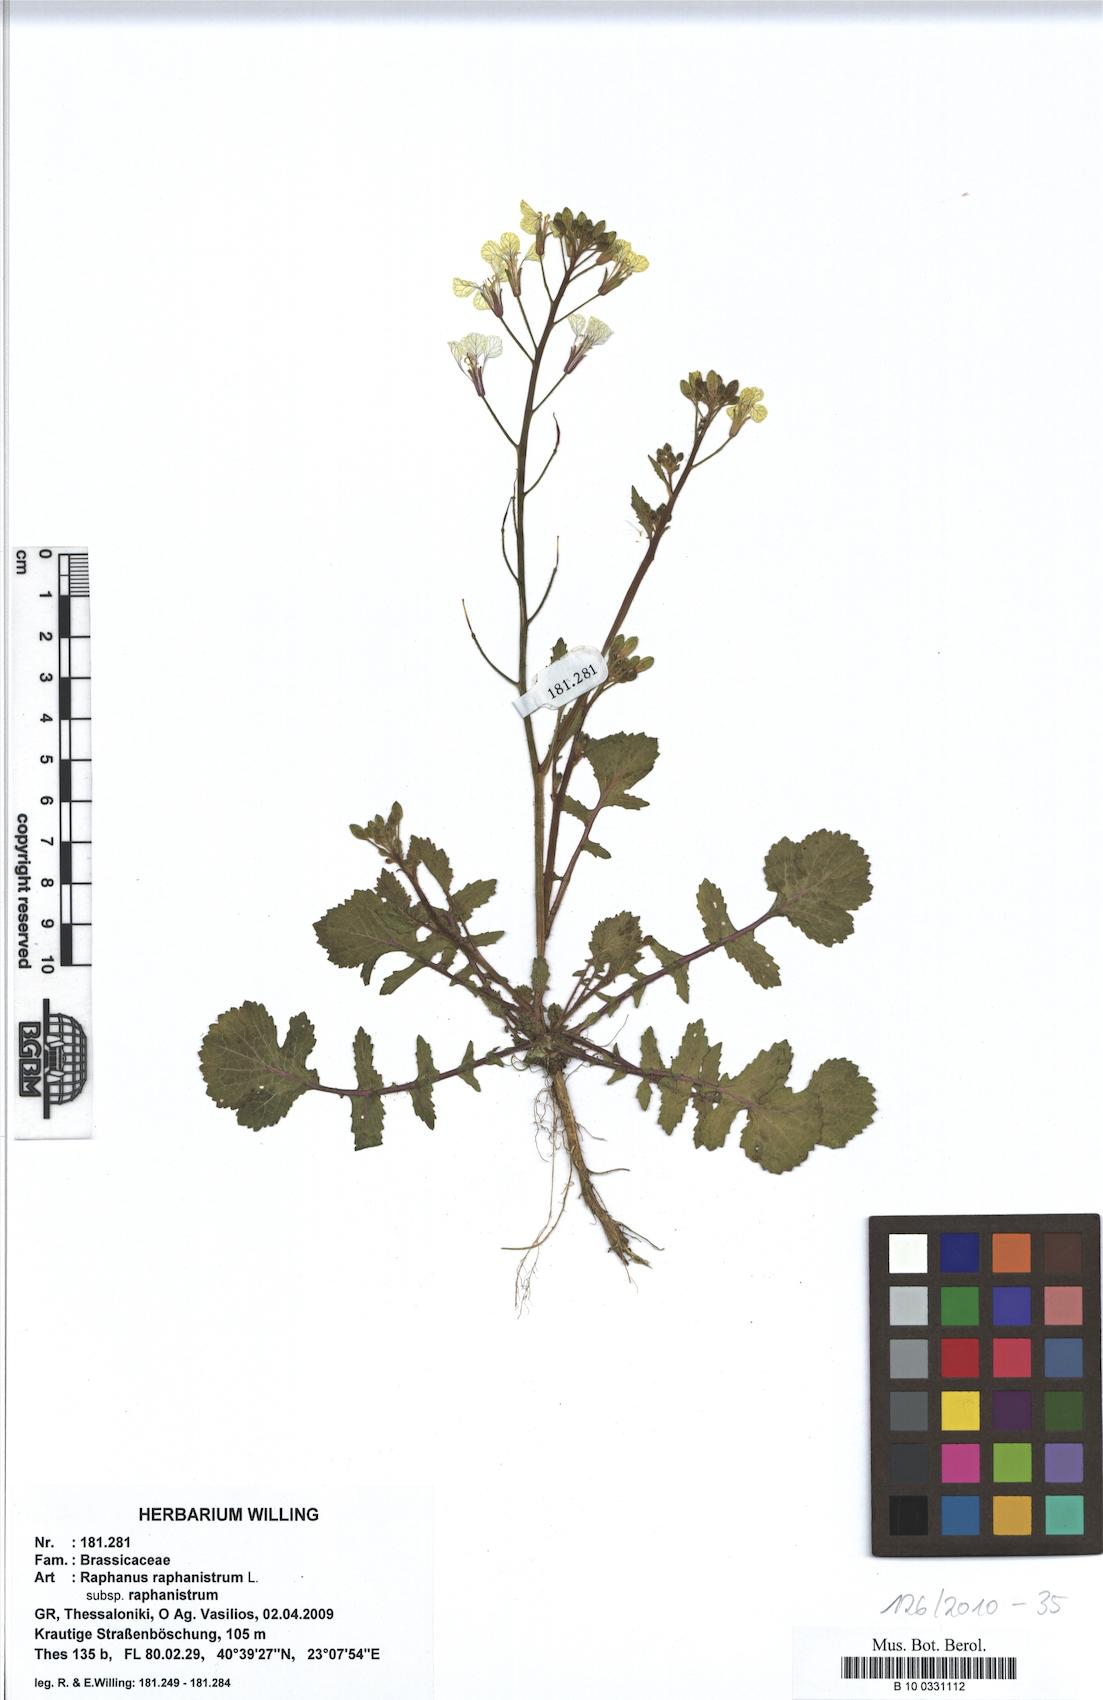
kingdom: Plantae
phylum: Tracheophyta
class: Magnoliopsida
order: Brassicales
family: Brassicaceae
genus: Raphanus
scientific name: Raphanus raphanistrum
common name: Wild radish
